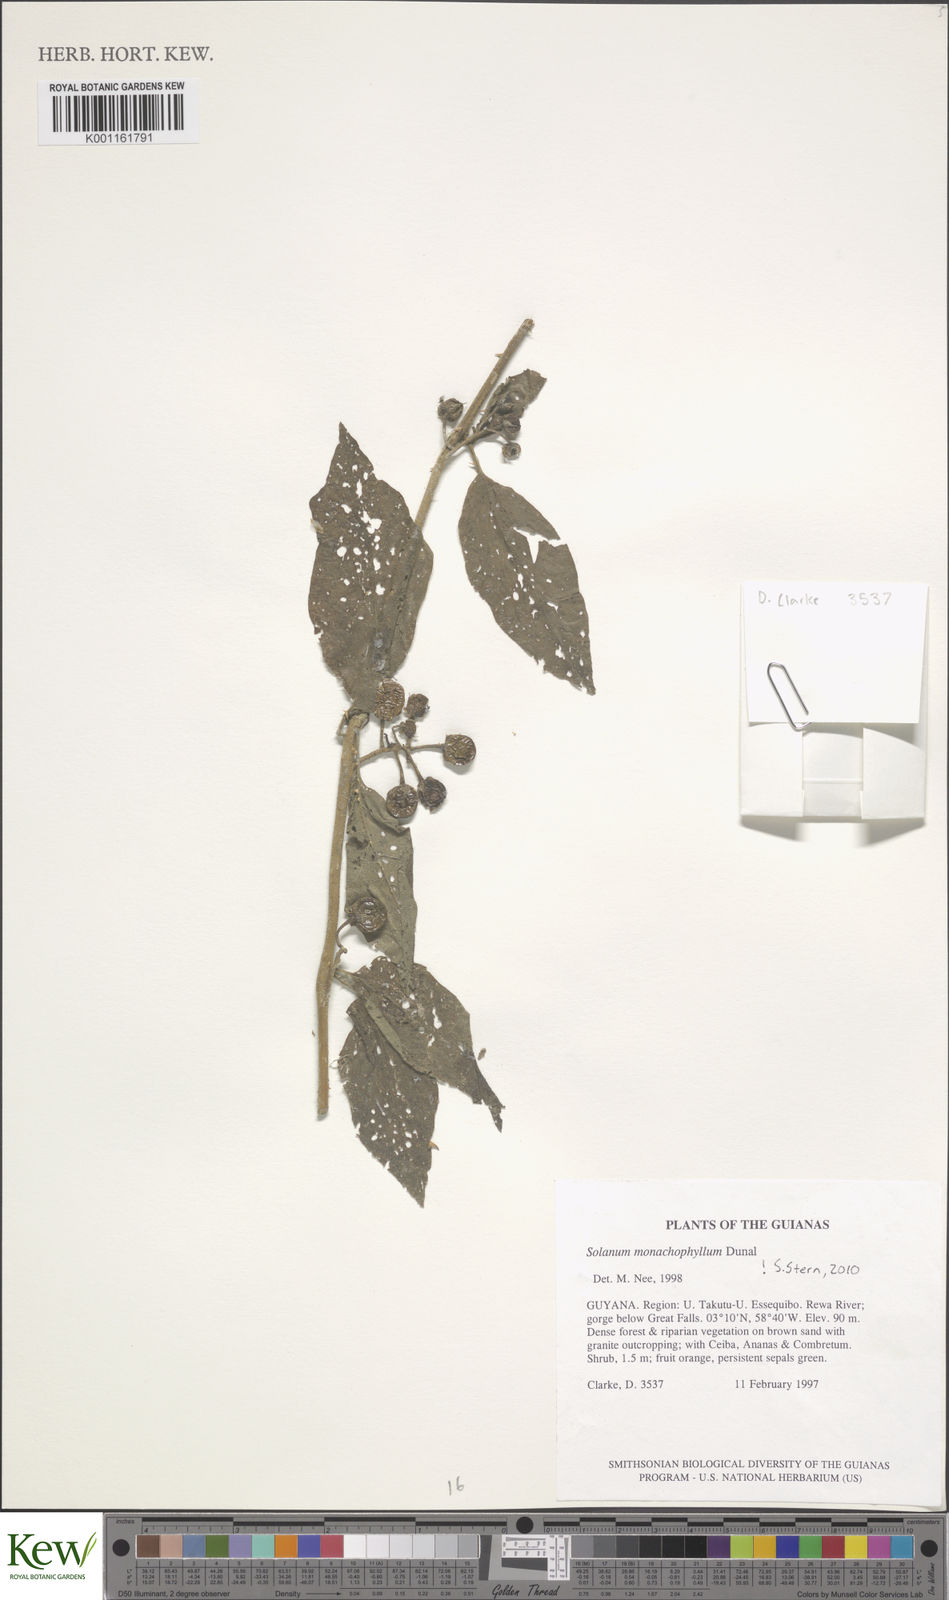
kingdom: Plantae
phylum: Tracheophyta
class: Magnoliopsida
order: Solanales
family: Solanaceae
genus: Solanum
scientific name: Solanum monachophyllum
